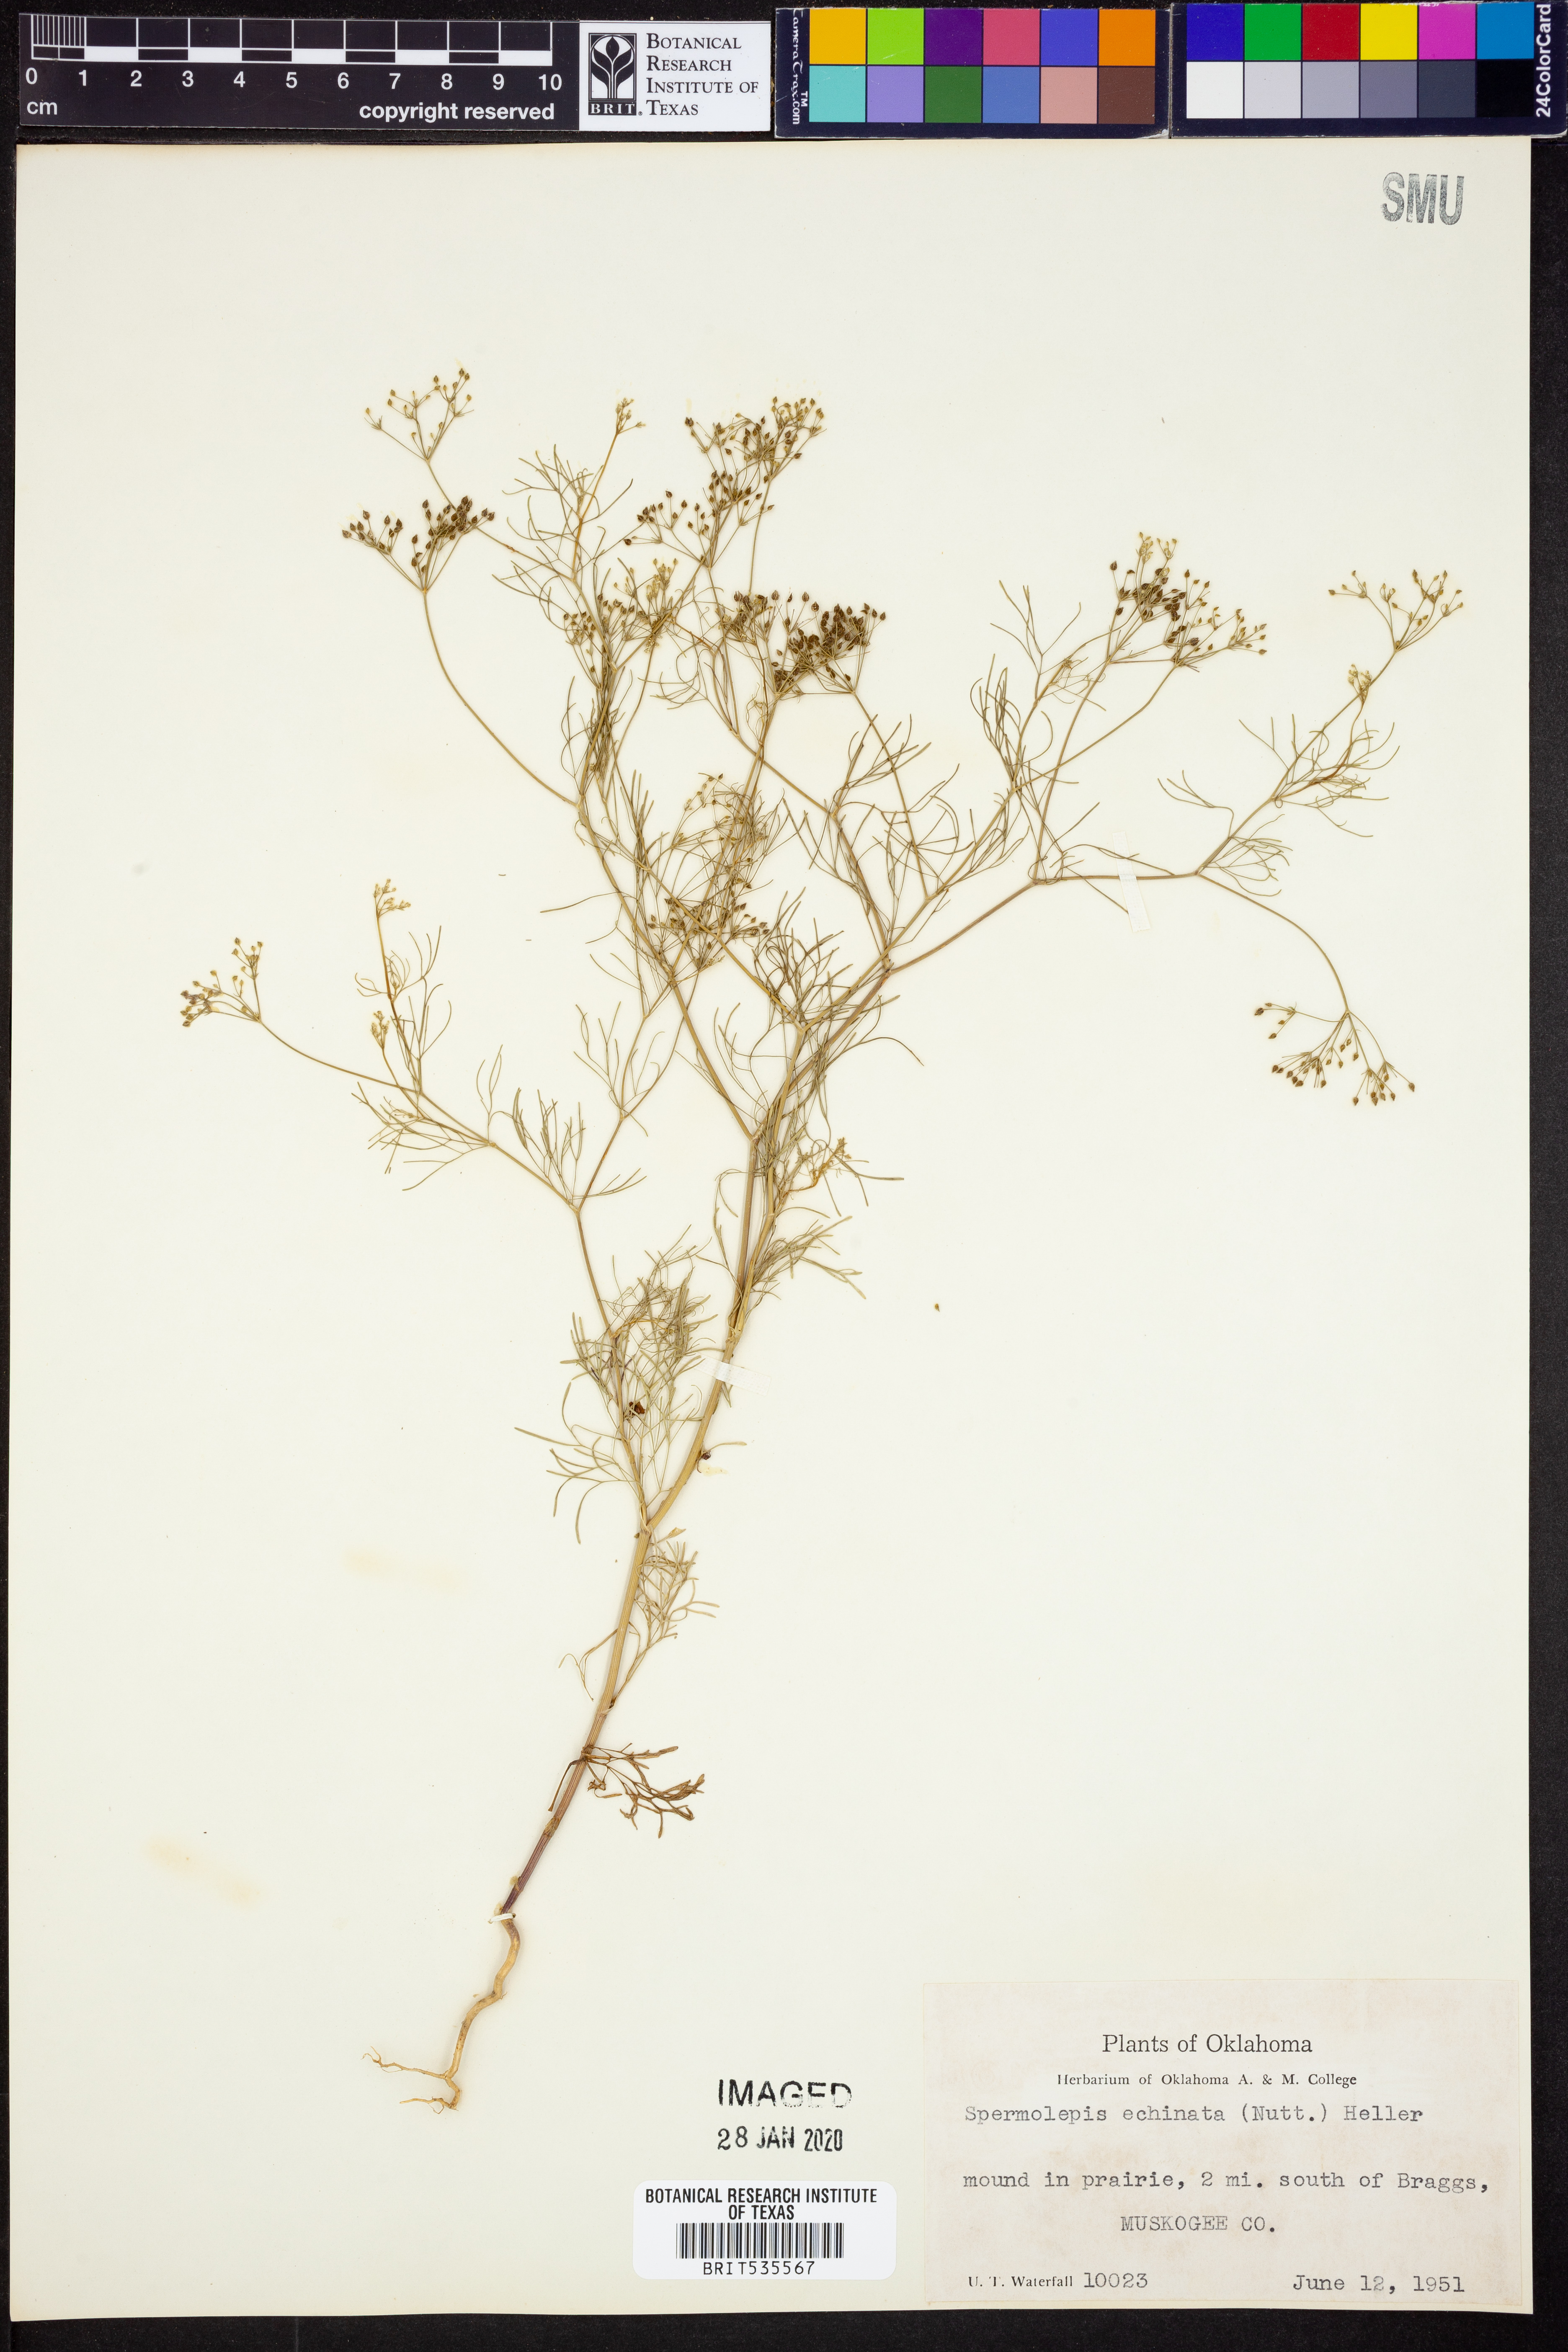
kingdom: Plantae
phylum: Tracheophyta
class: Magnoliopsida
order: Apiales
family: Apiaceae
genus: Spermolepis
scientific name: Spermolepis echinata
